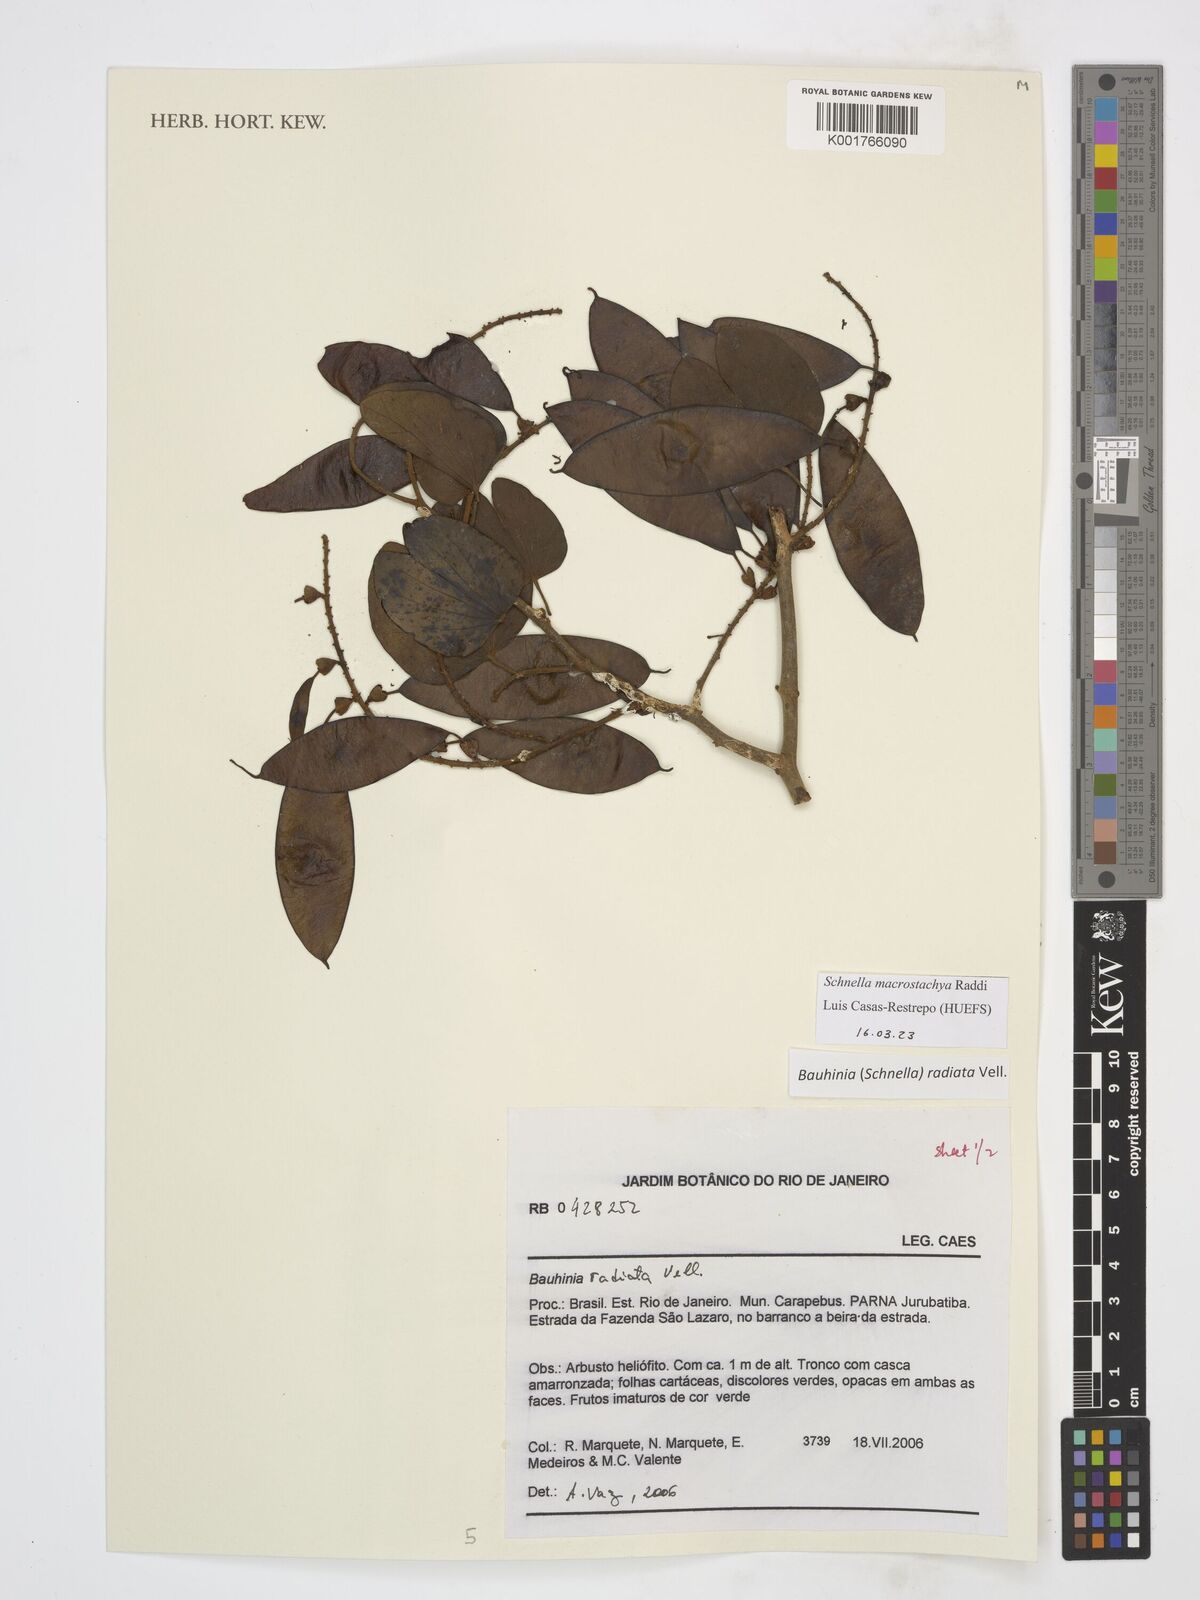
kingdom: Plantae
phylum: Tracheophyta
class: Magnoliopsida
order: Fabales
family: Fabaceae
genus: Schnella
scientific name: Schnella macrostachya
